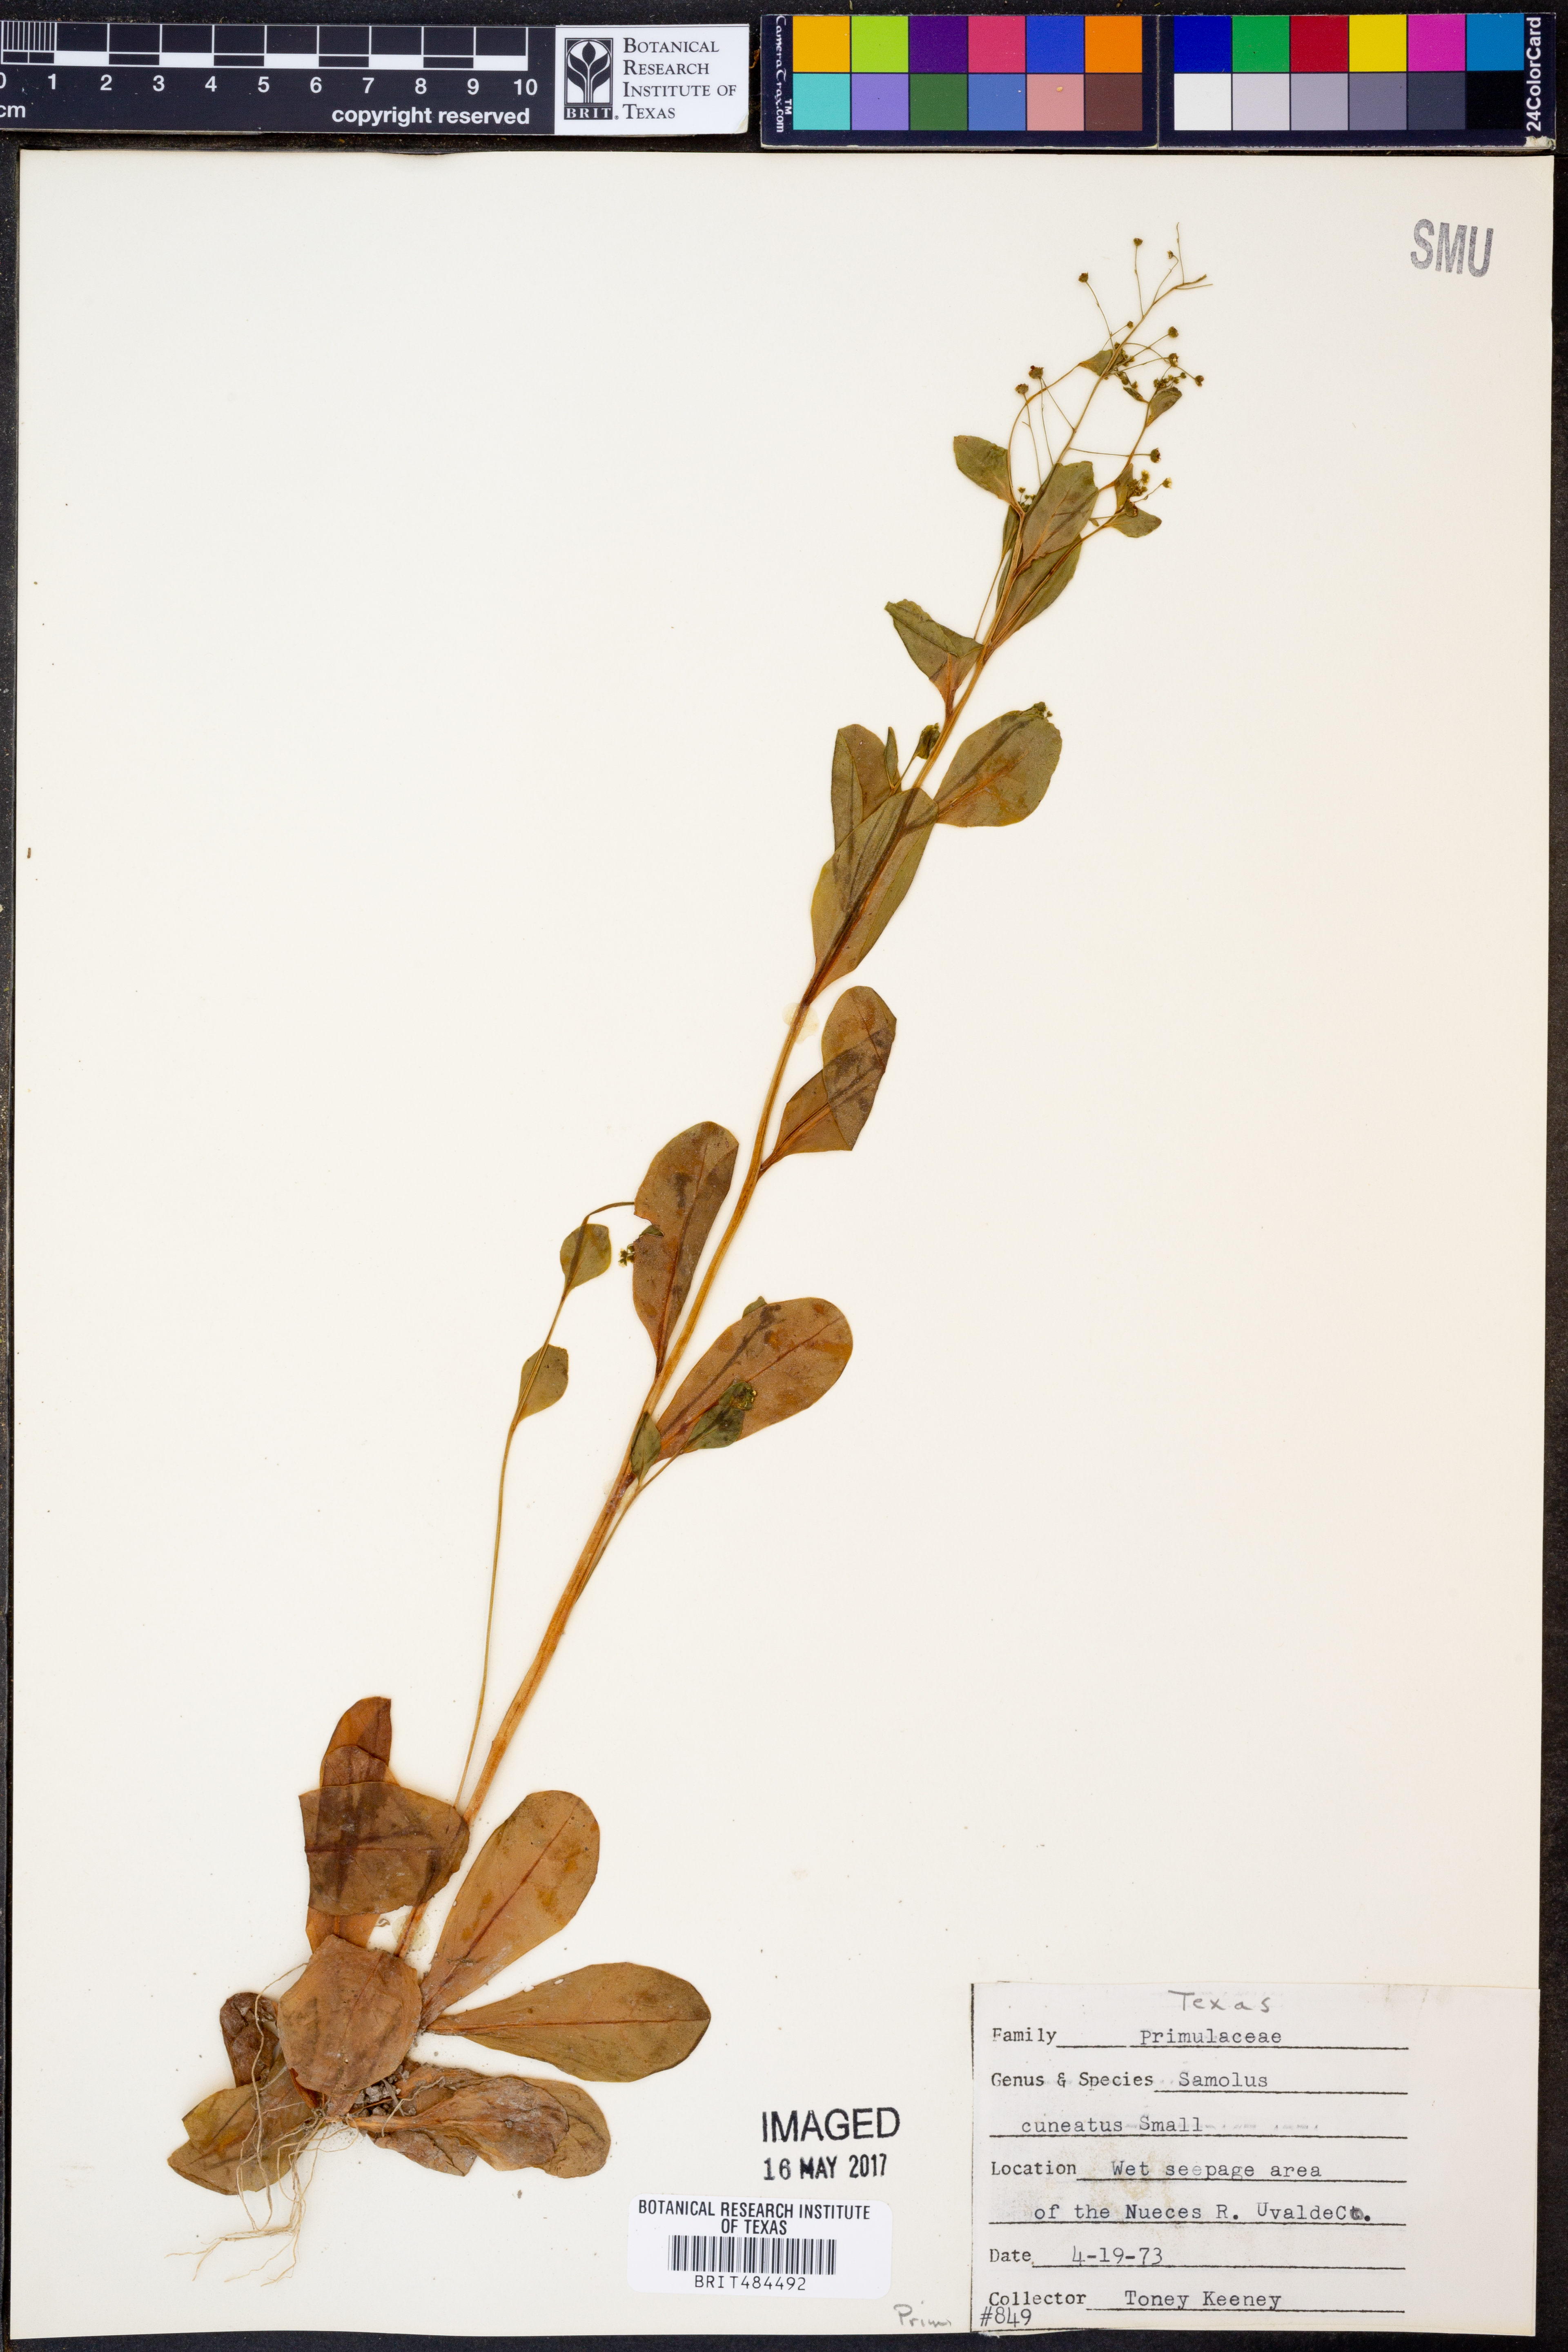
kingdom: Plantae
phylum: Tracheophyta
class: Magnoliopsida
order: Ericales
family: Primulaceae
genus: Samolus
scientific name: Samolus ebracteatus
